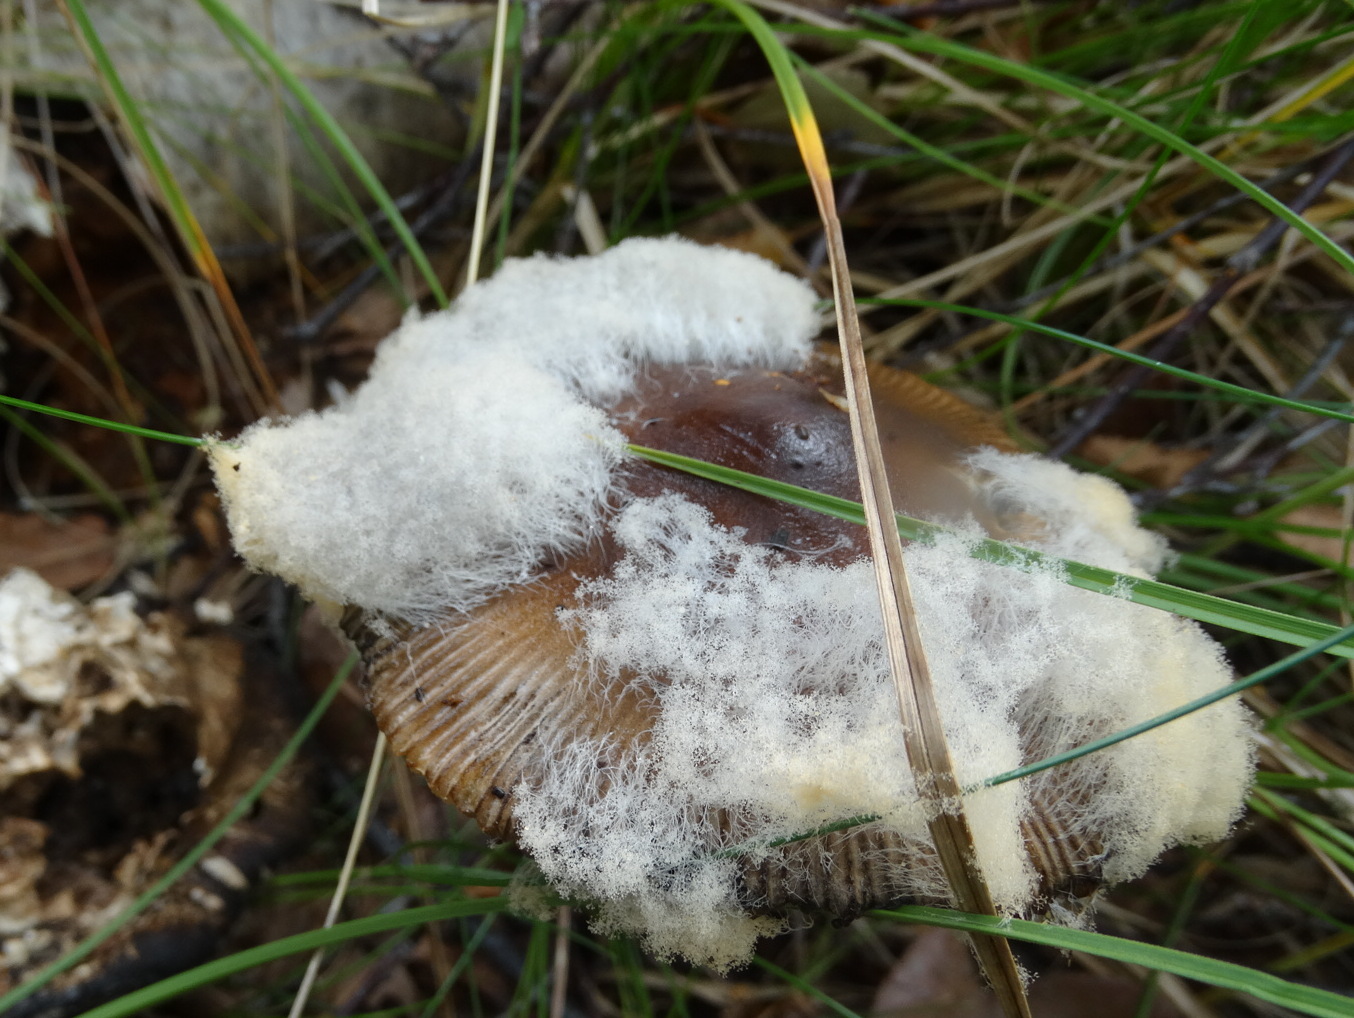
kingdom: Fungi
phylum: Mucoromycota
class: Mucoromycetes
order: Mucorales
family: Rhizopodaceae
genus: Syzygites
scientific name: Syzygites megalocarpus
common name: nissenål
